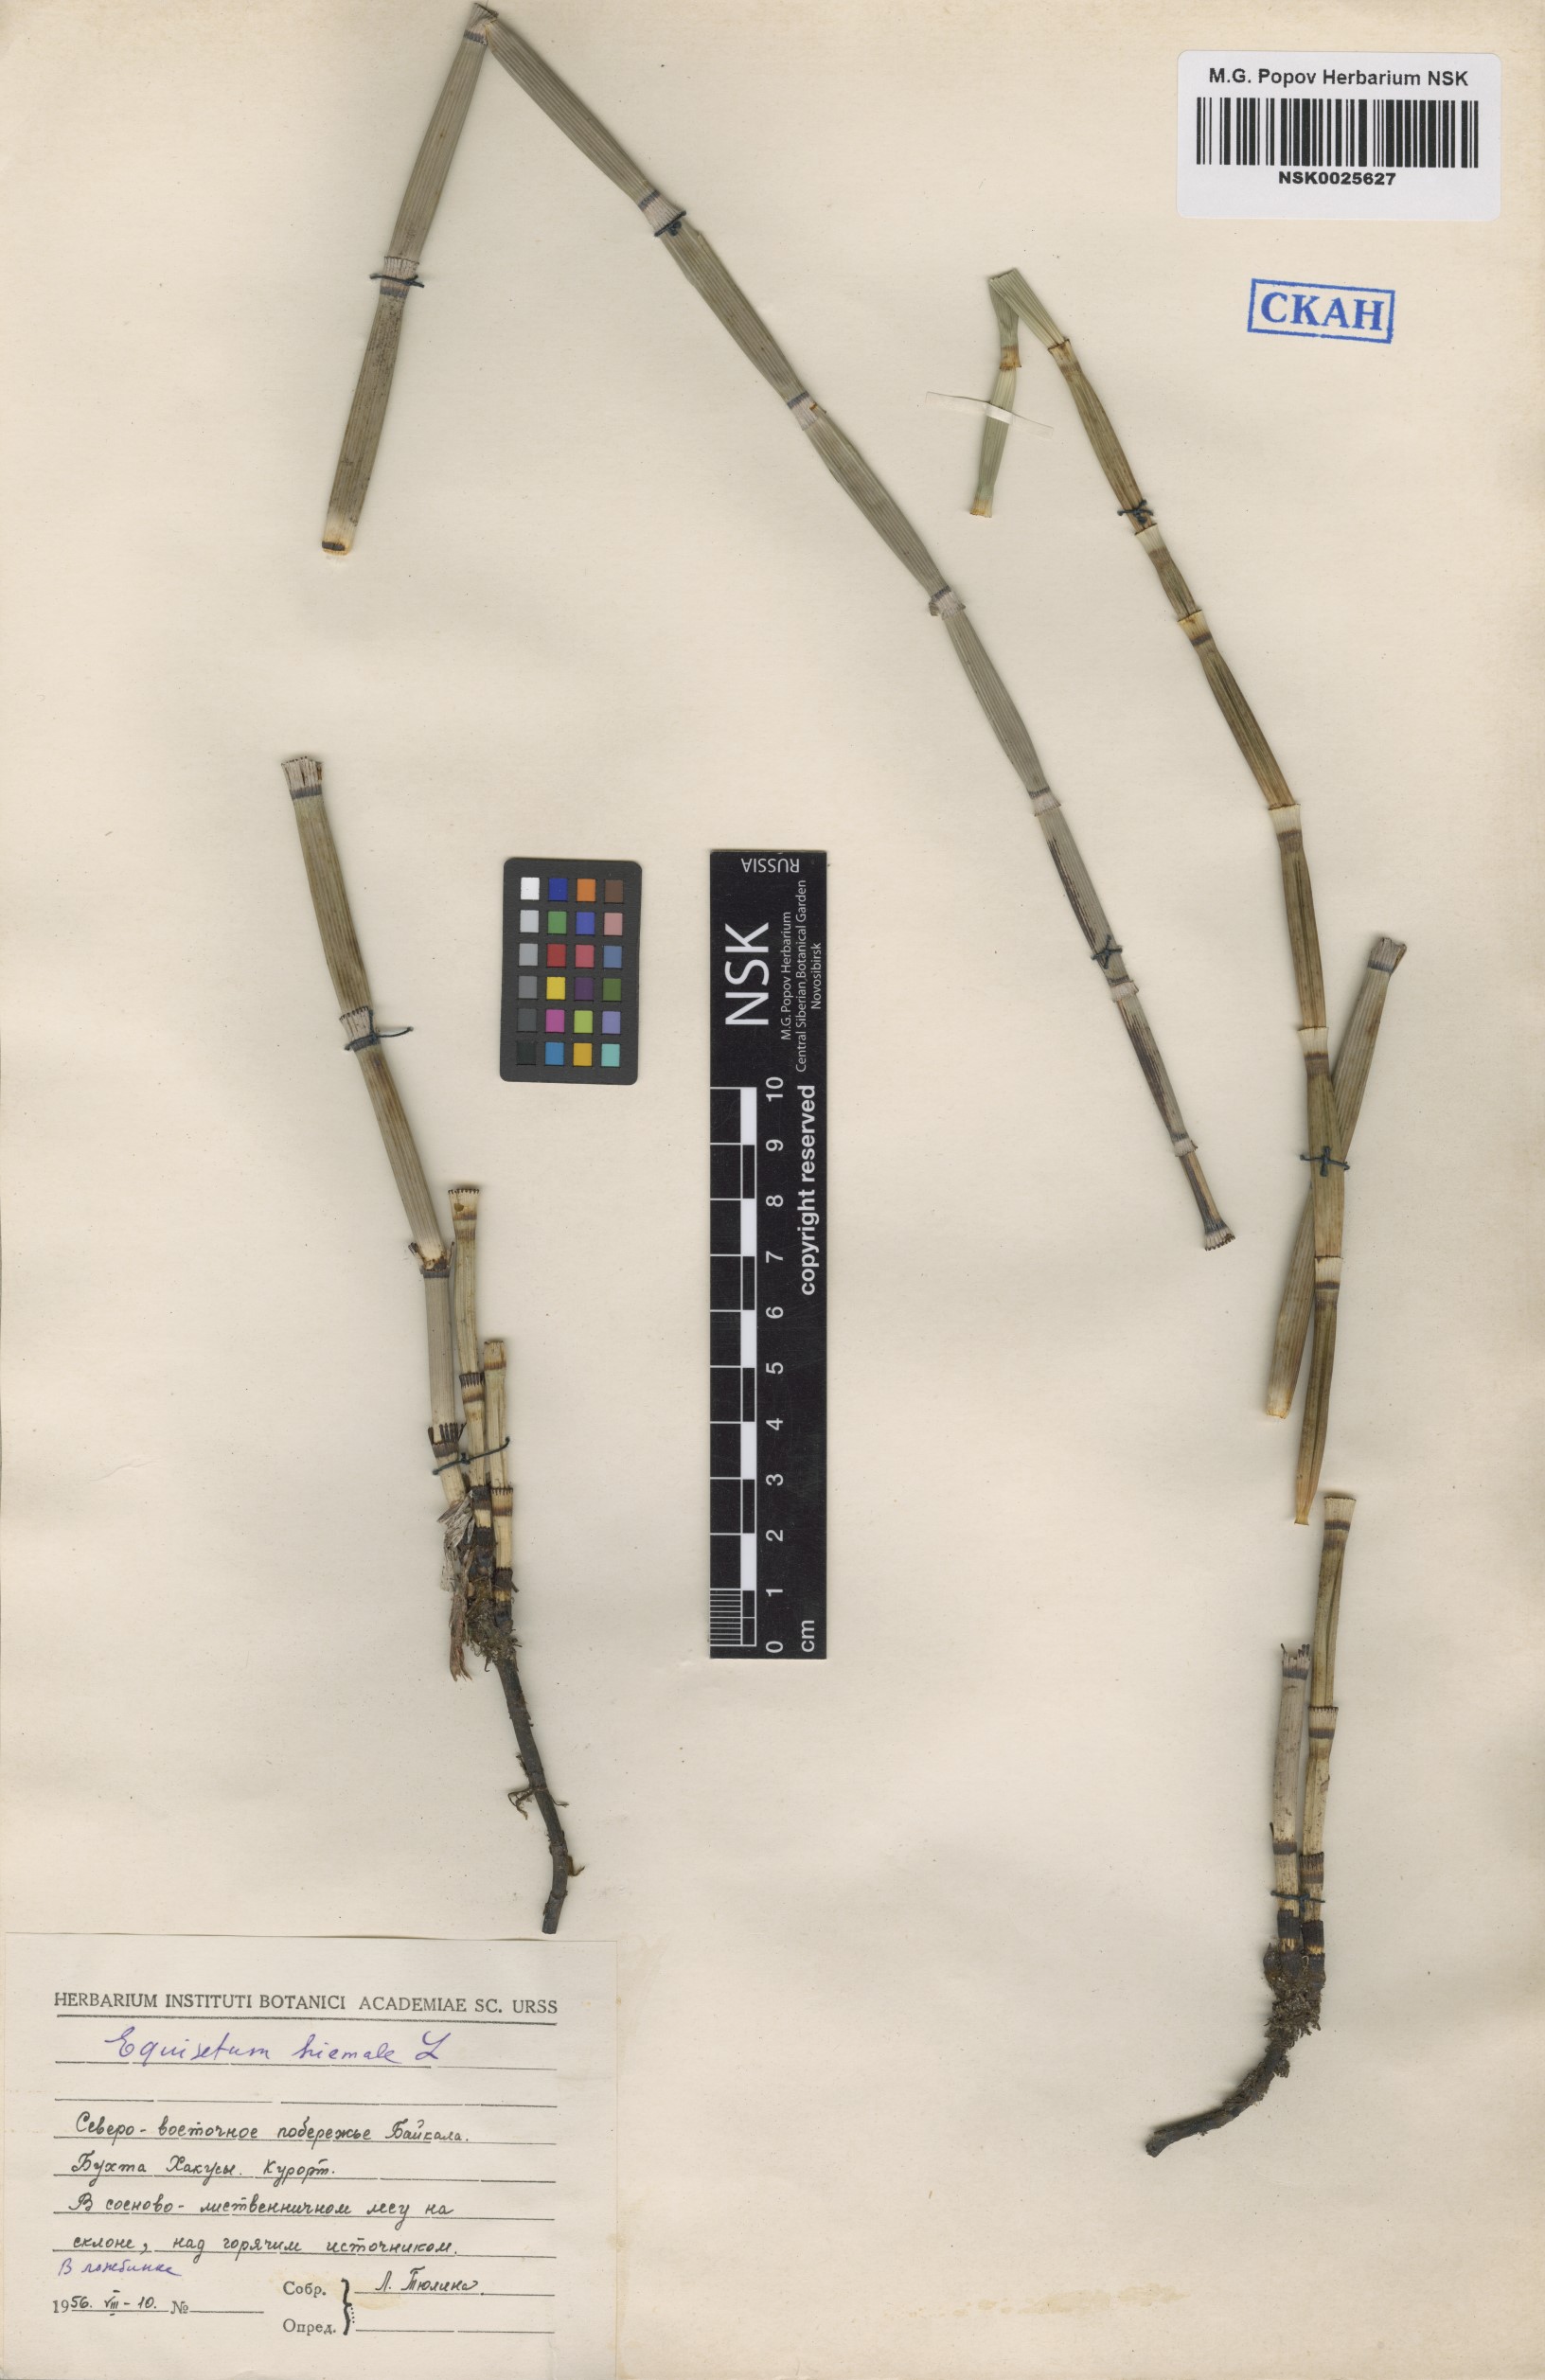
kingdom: Plantae
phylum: Tracheophyta
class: Polypodiopsida
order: Equisetales
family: Equisetaceae
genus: Equisetum
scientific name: Equisetum hyemale
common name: Rough horsetail
